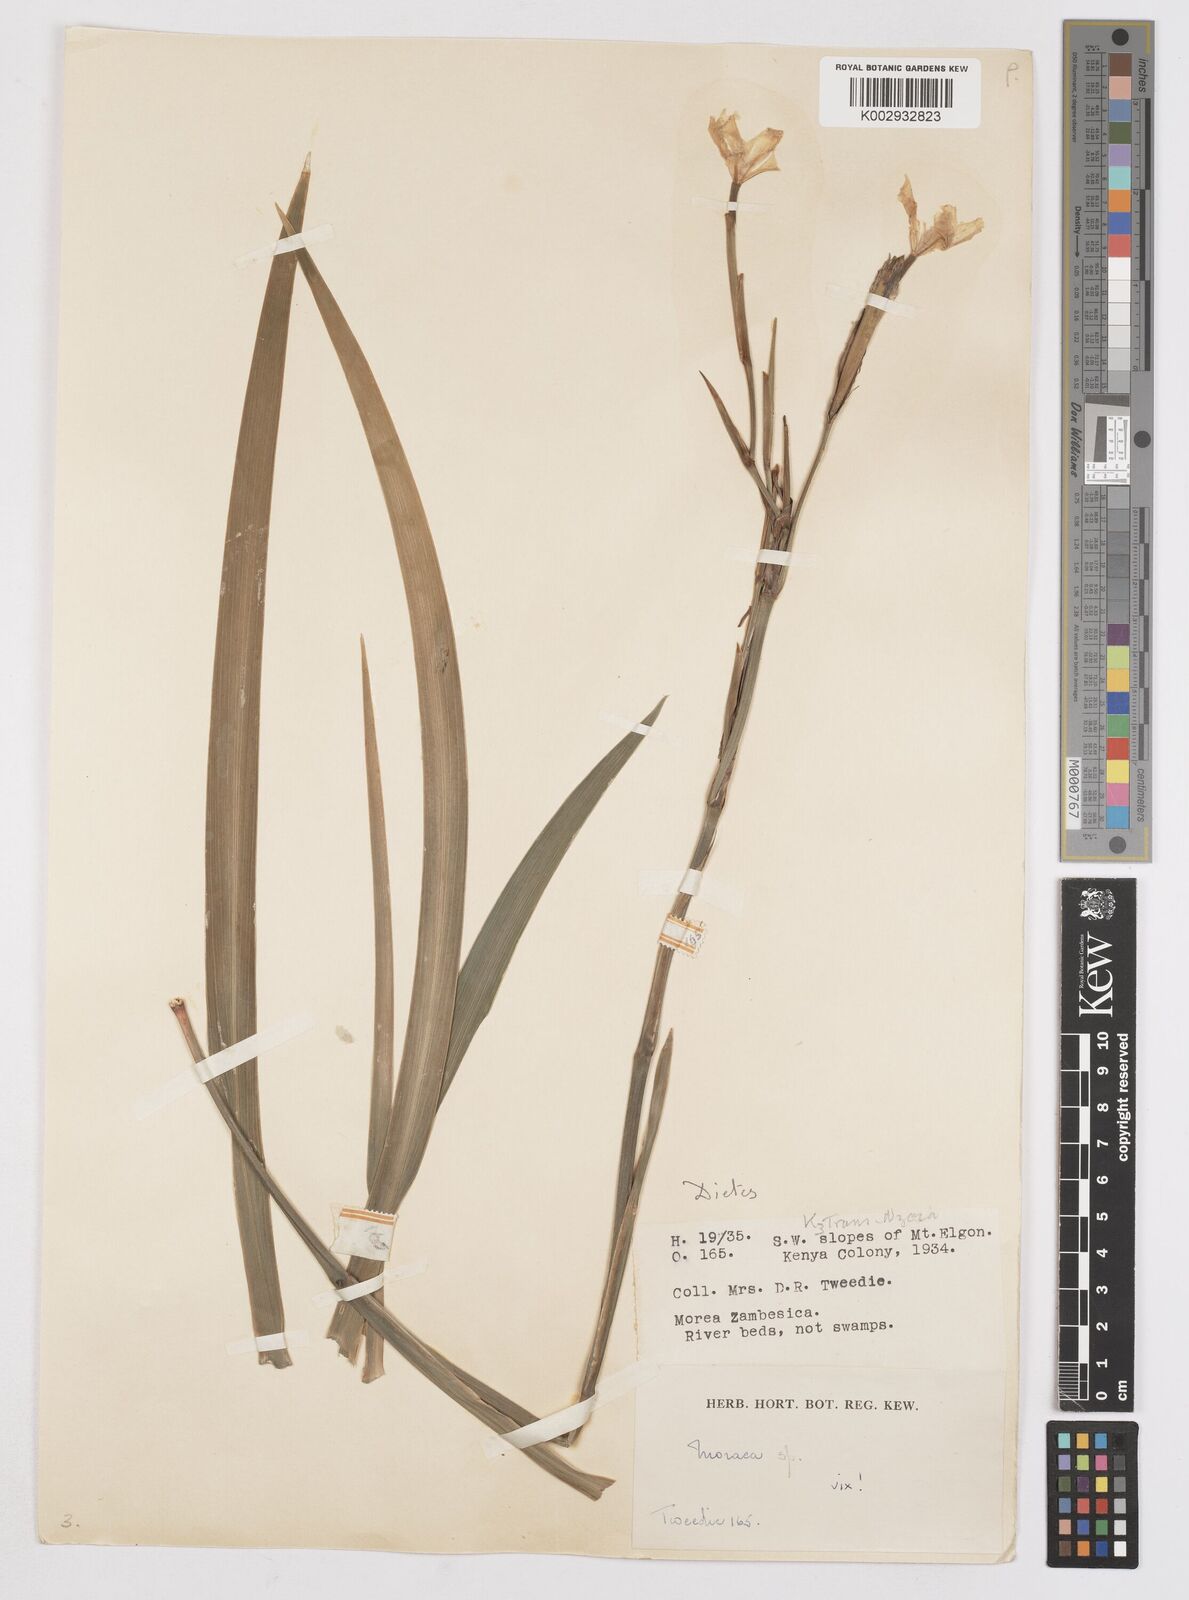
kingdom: Plantae
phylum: Tracheophyta
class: Liliopsida
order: Asparagales
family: Iridaceae
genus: Dietes
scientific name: Dietes iridioides
